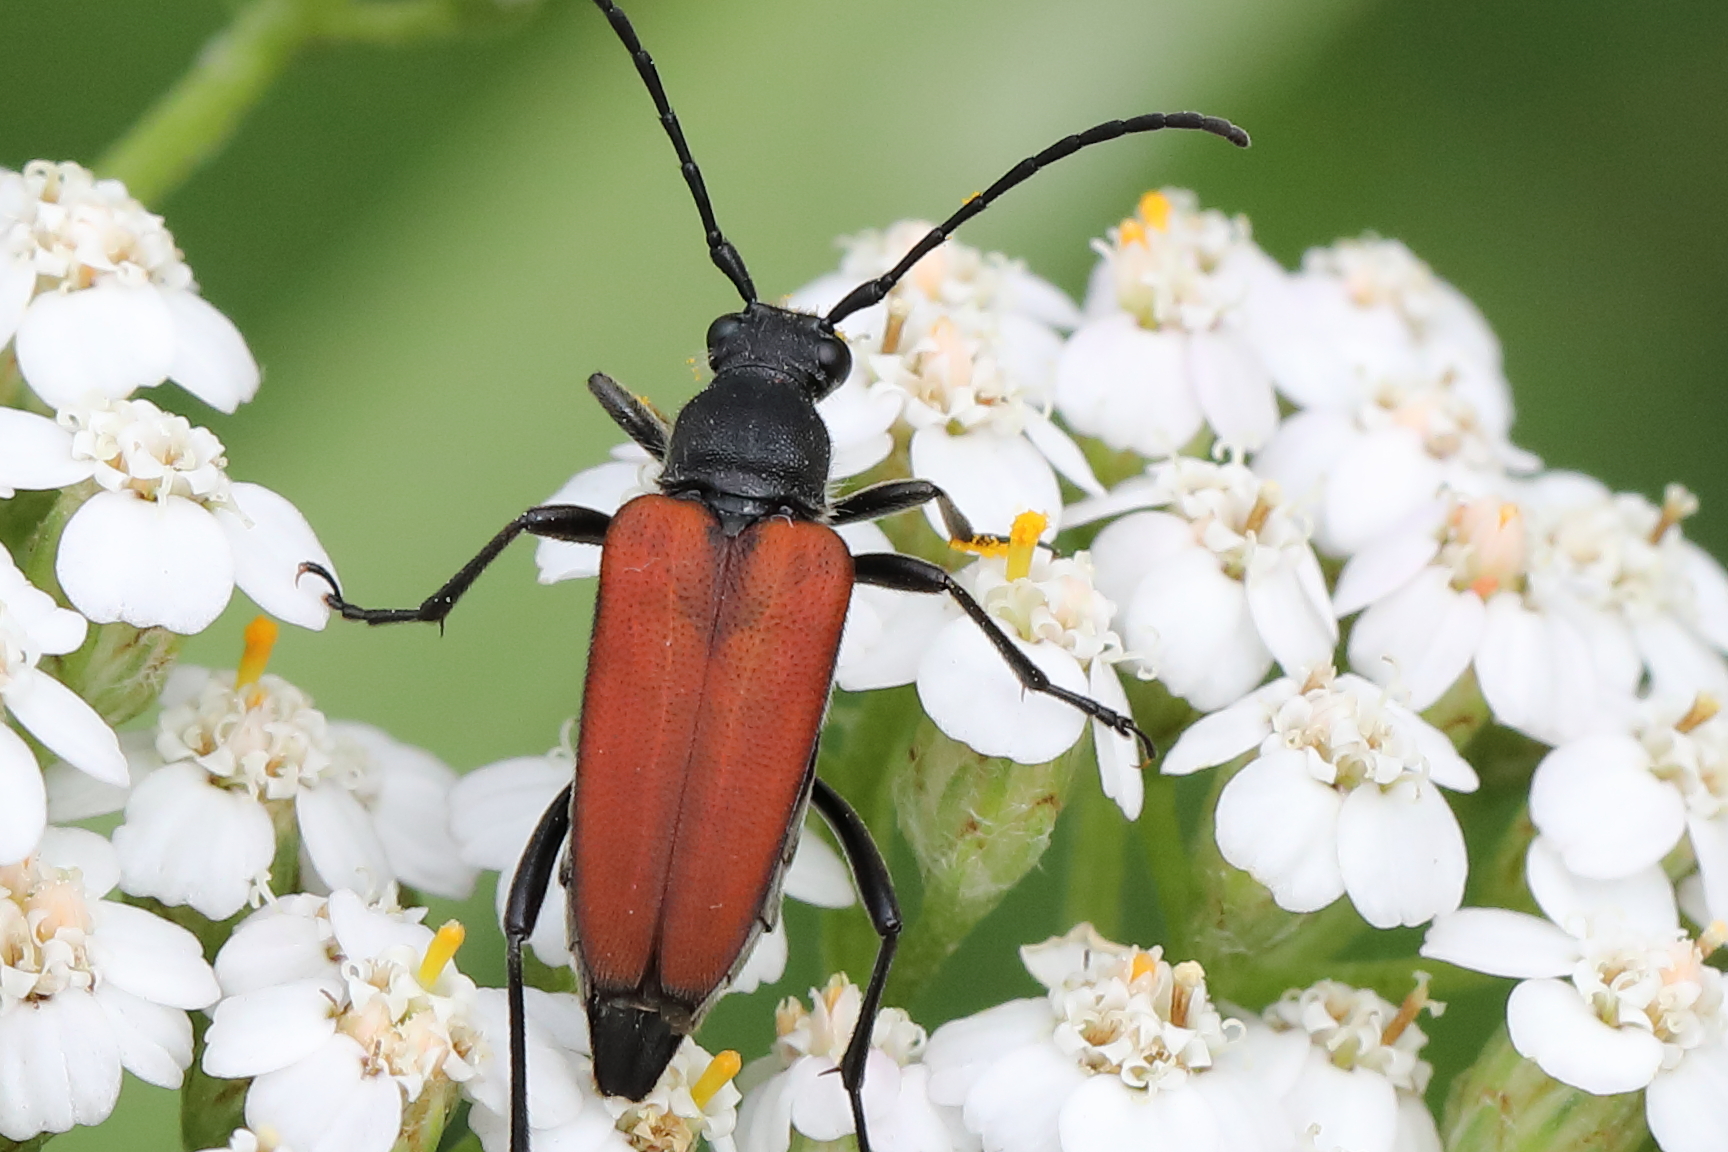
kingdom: Animalia
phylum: Arthropoda
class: Insecta
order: Coleoptera
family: Cerambycidae
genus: Anastrangalia
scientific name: Anastrangalia reyi
